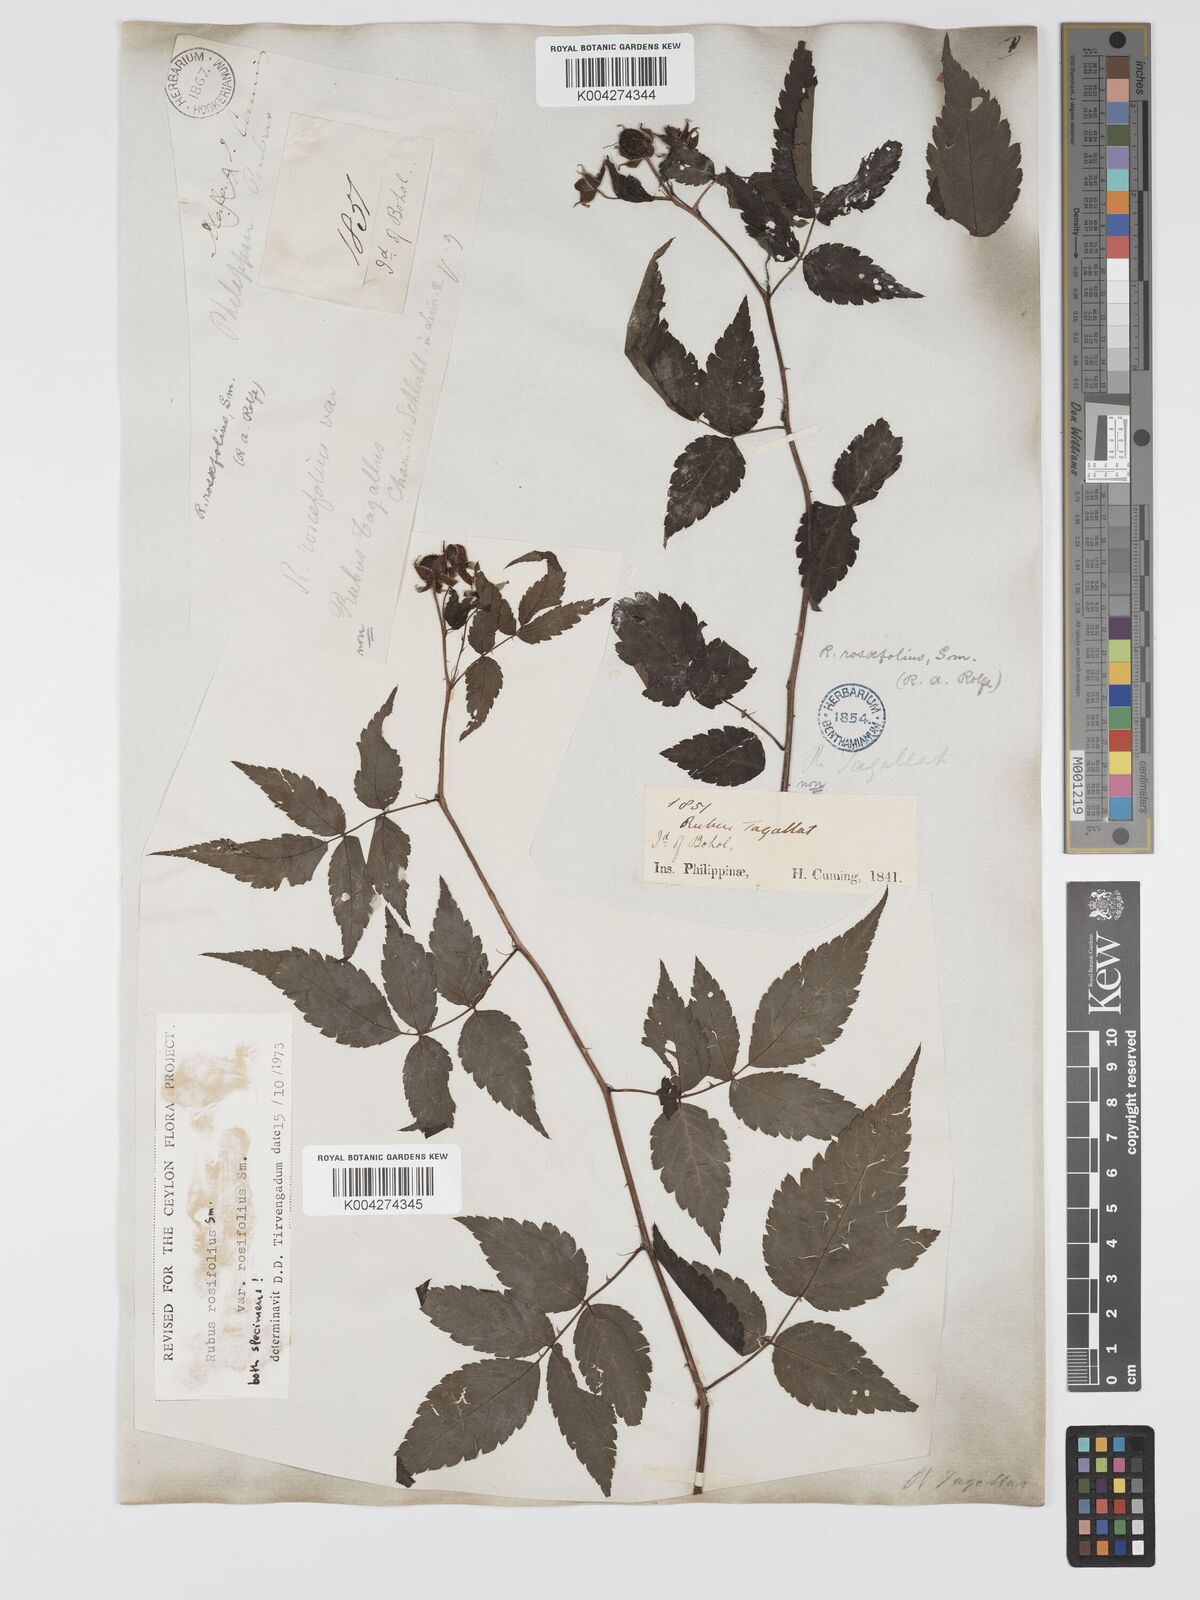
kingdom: Plantae
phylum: Tracheophyta
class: Magnoliopsida
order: Rosales
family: Rosaceae
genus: Rubus
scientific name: Rubus
